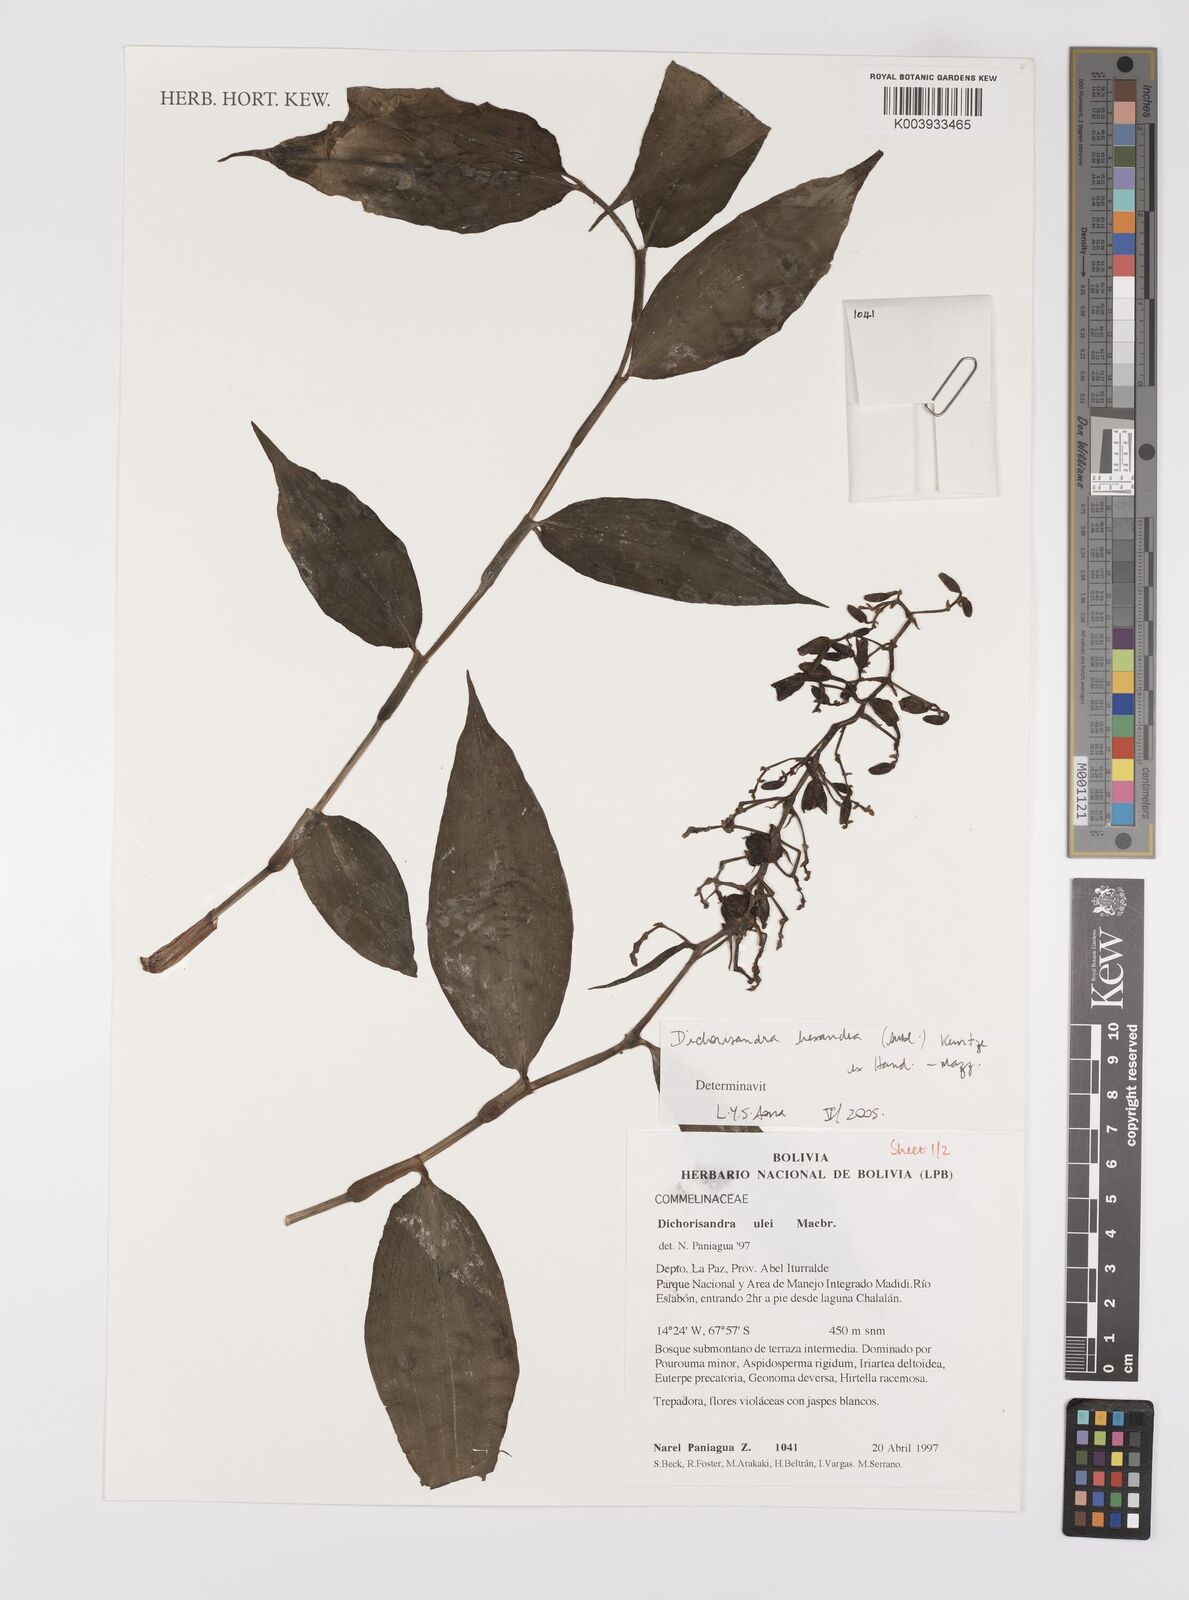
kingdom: Plantae
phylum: Tracheophyta
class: Liliopsida
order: Commelinales
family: Commelinaceae
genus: Dichorisandra
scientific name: Dichorisandra hexandra
